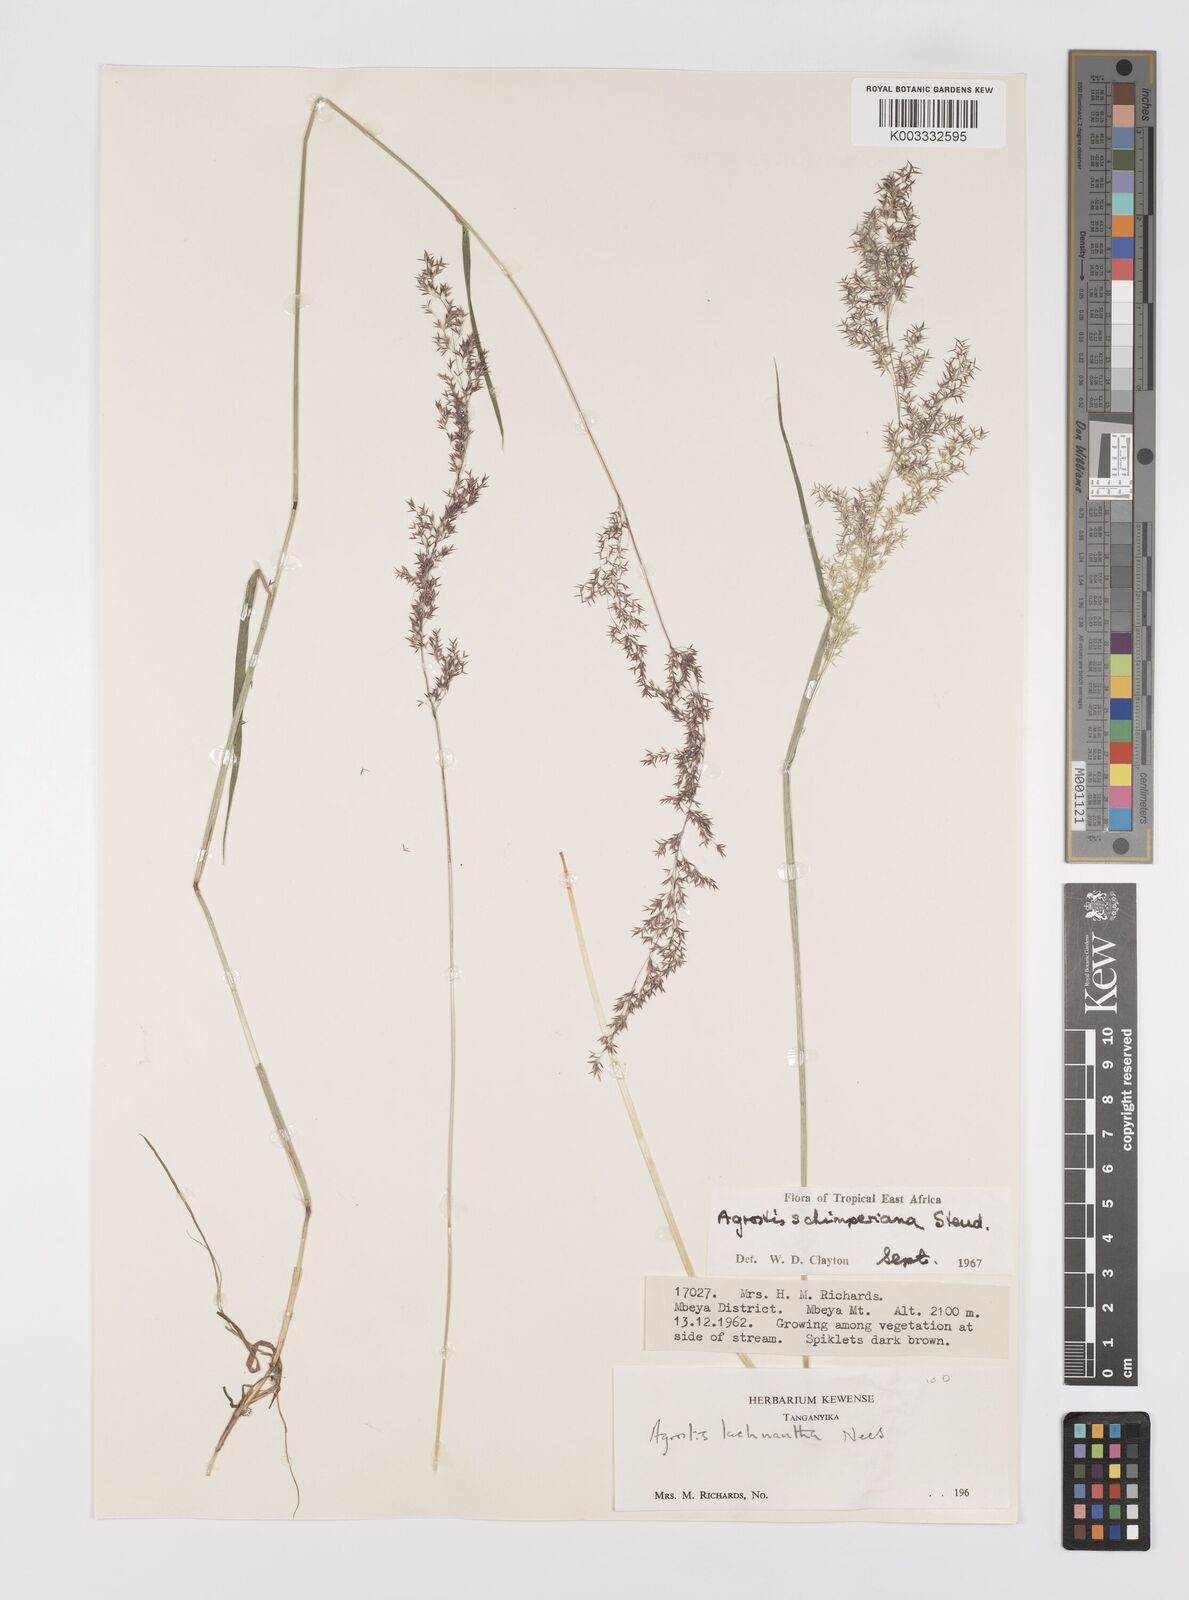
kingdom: Plantae
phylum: Tracheophyta
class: Liliopsida
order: Poales
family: Poaceae
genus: Polypogon
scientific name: Polypogon schimperianus
